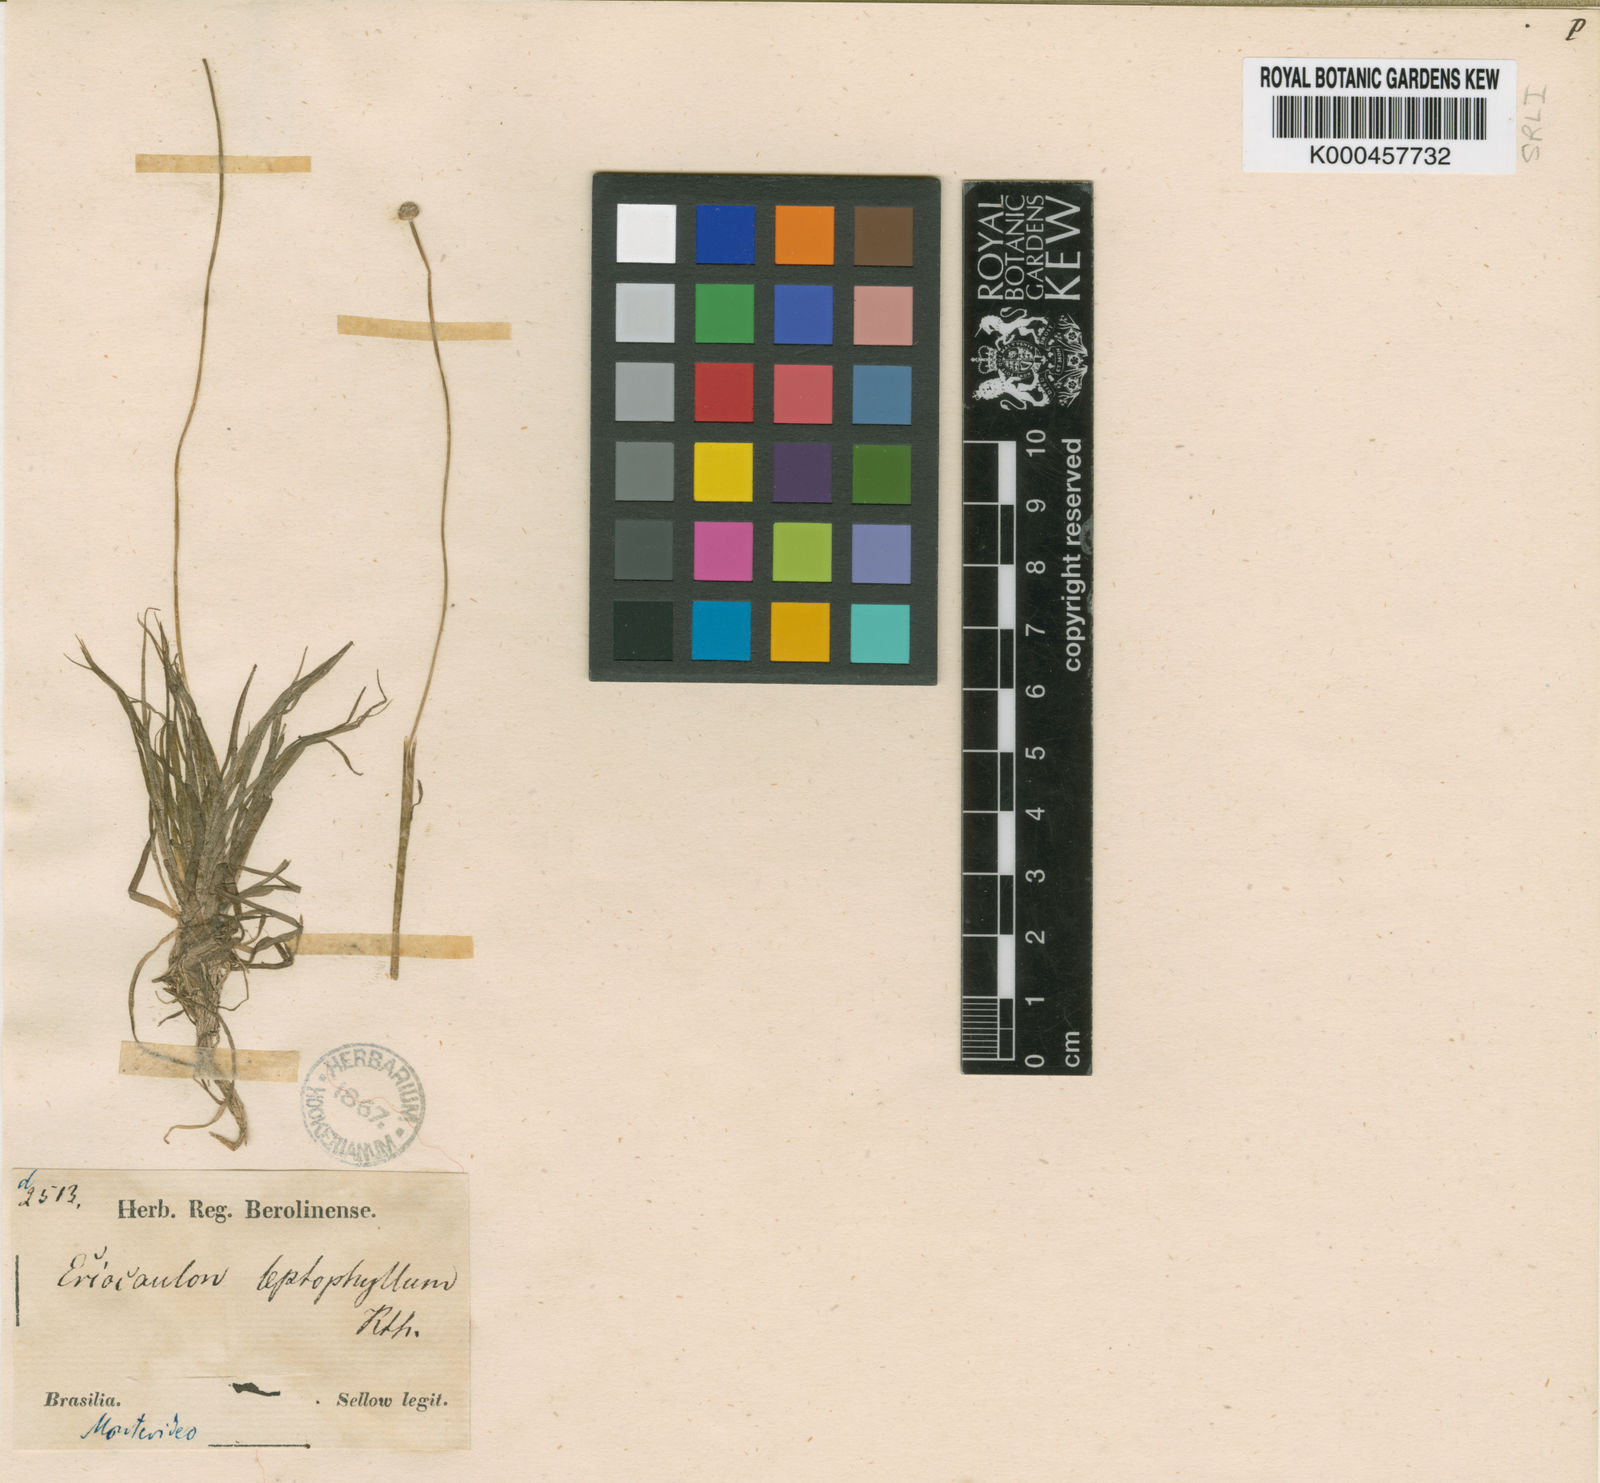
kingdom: Plantae
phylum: Tracheophyta
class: Liliopsida
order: Poales
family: Eriocaulaceae
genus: Eriocaulon
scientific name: Eriocaulon leptophyllum
